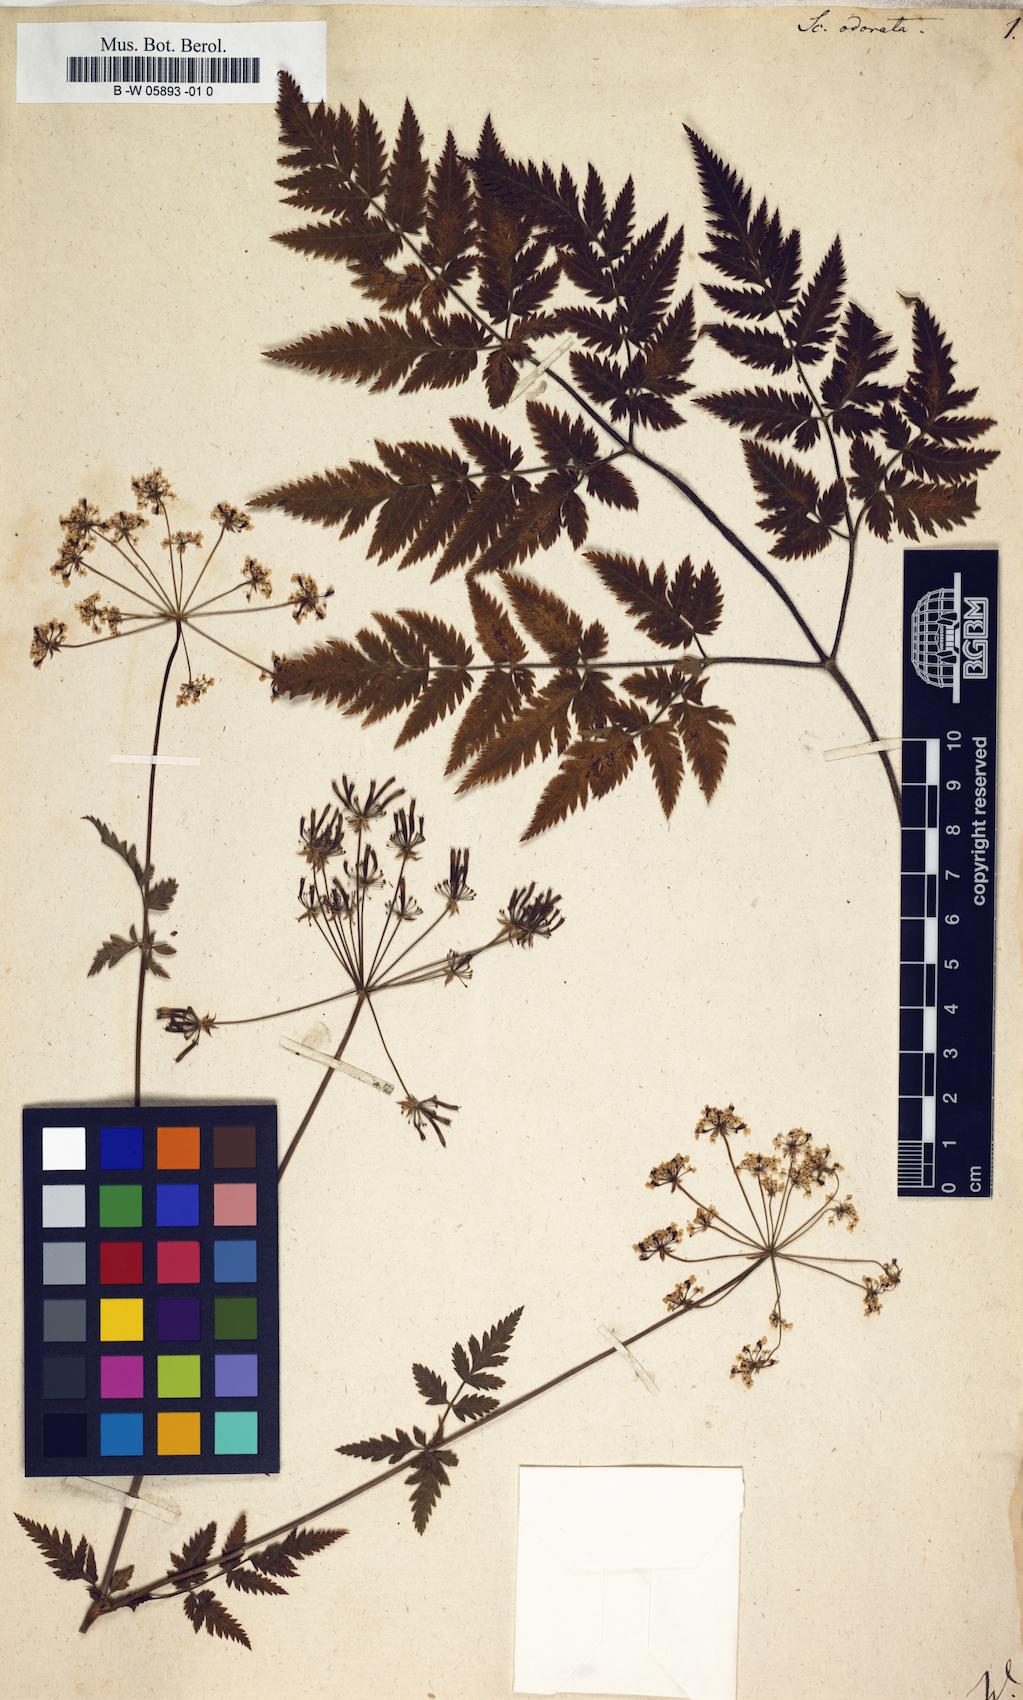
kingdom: Plantae
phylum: Tracheophyta
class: Magnoliopsida
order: Apiales
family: Apiaceae
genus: Myrrhis
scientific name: Myrrhis odorata
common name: Sweet cicely
